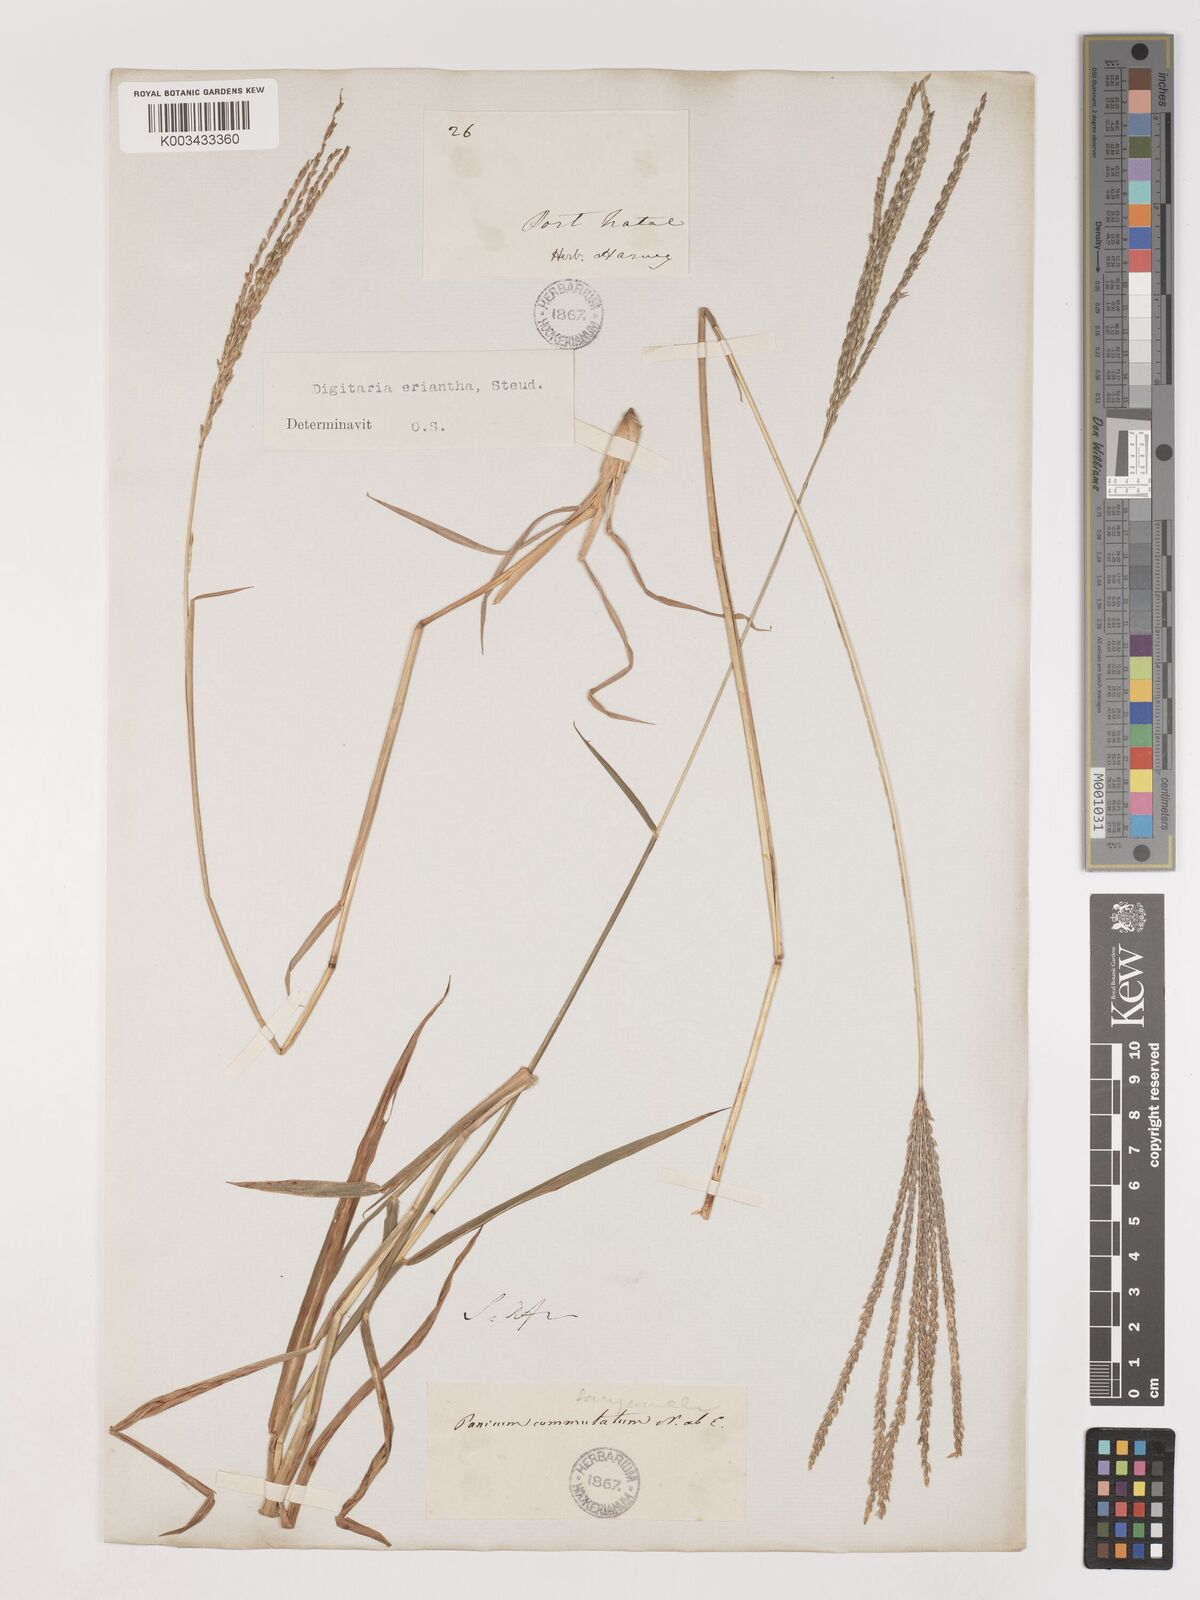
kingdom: Plantae
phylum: Tracheophyta
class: Liliopsida
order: Poales
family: Poaceae
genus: Digitaria
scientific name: Digitaria eriantha
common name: Digitgrass
